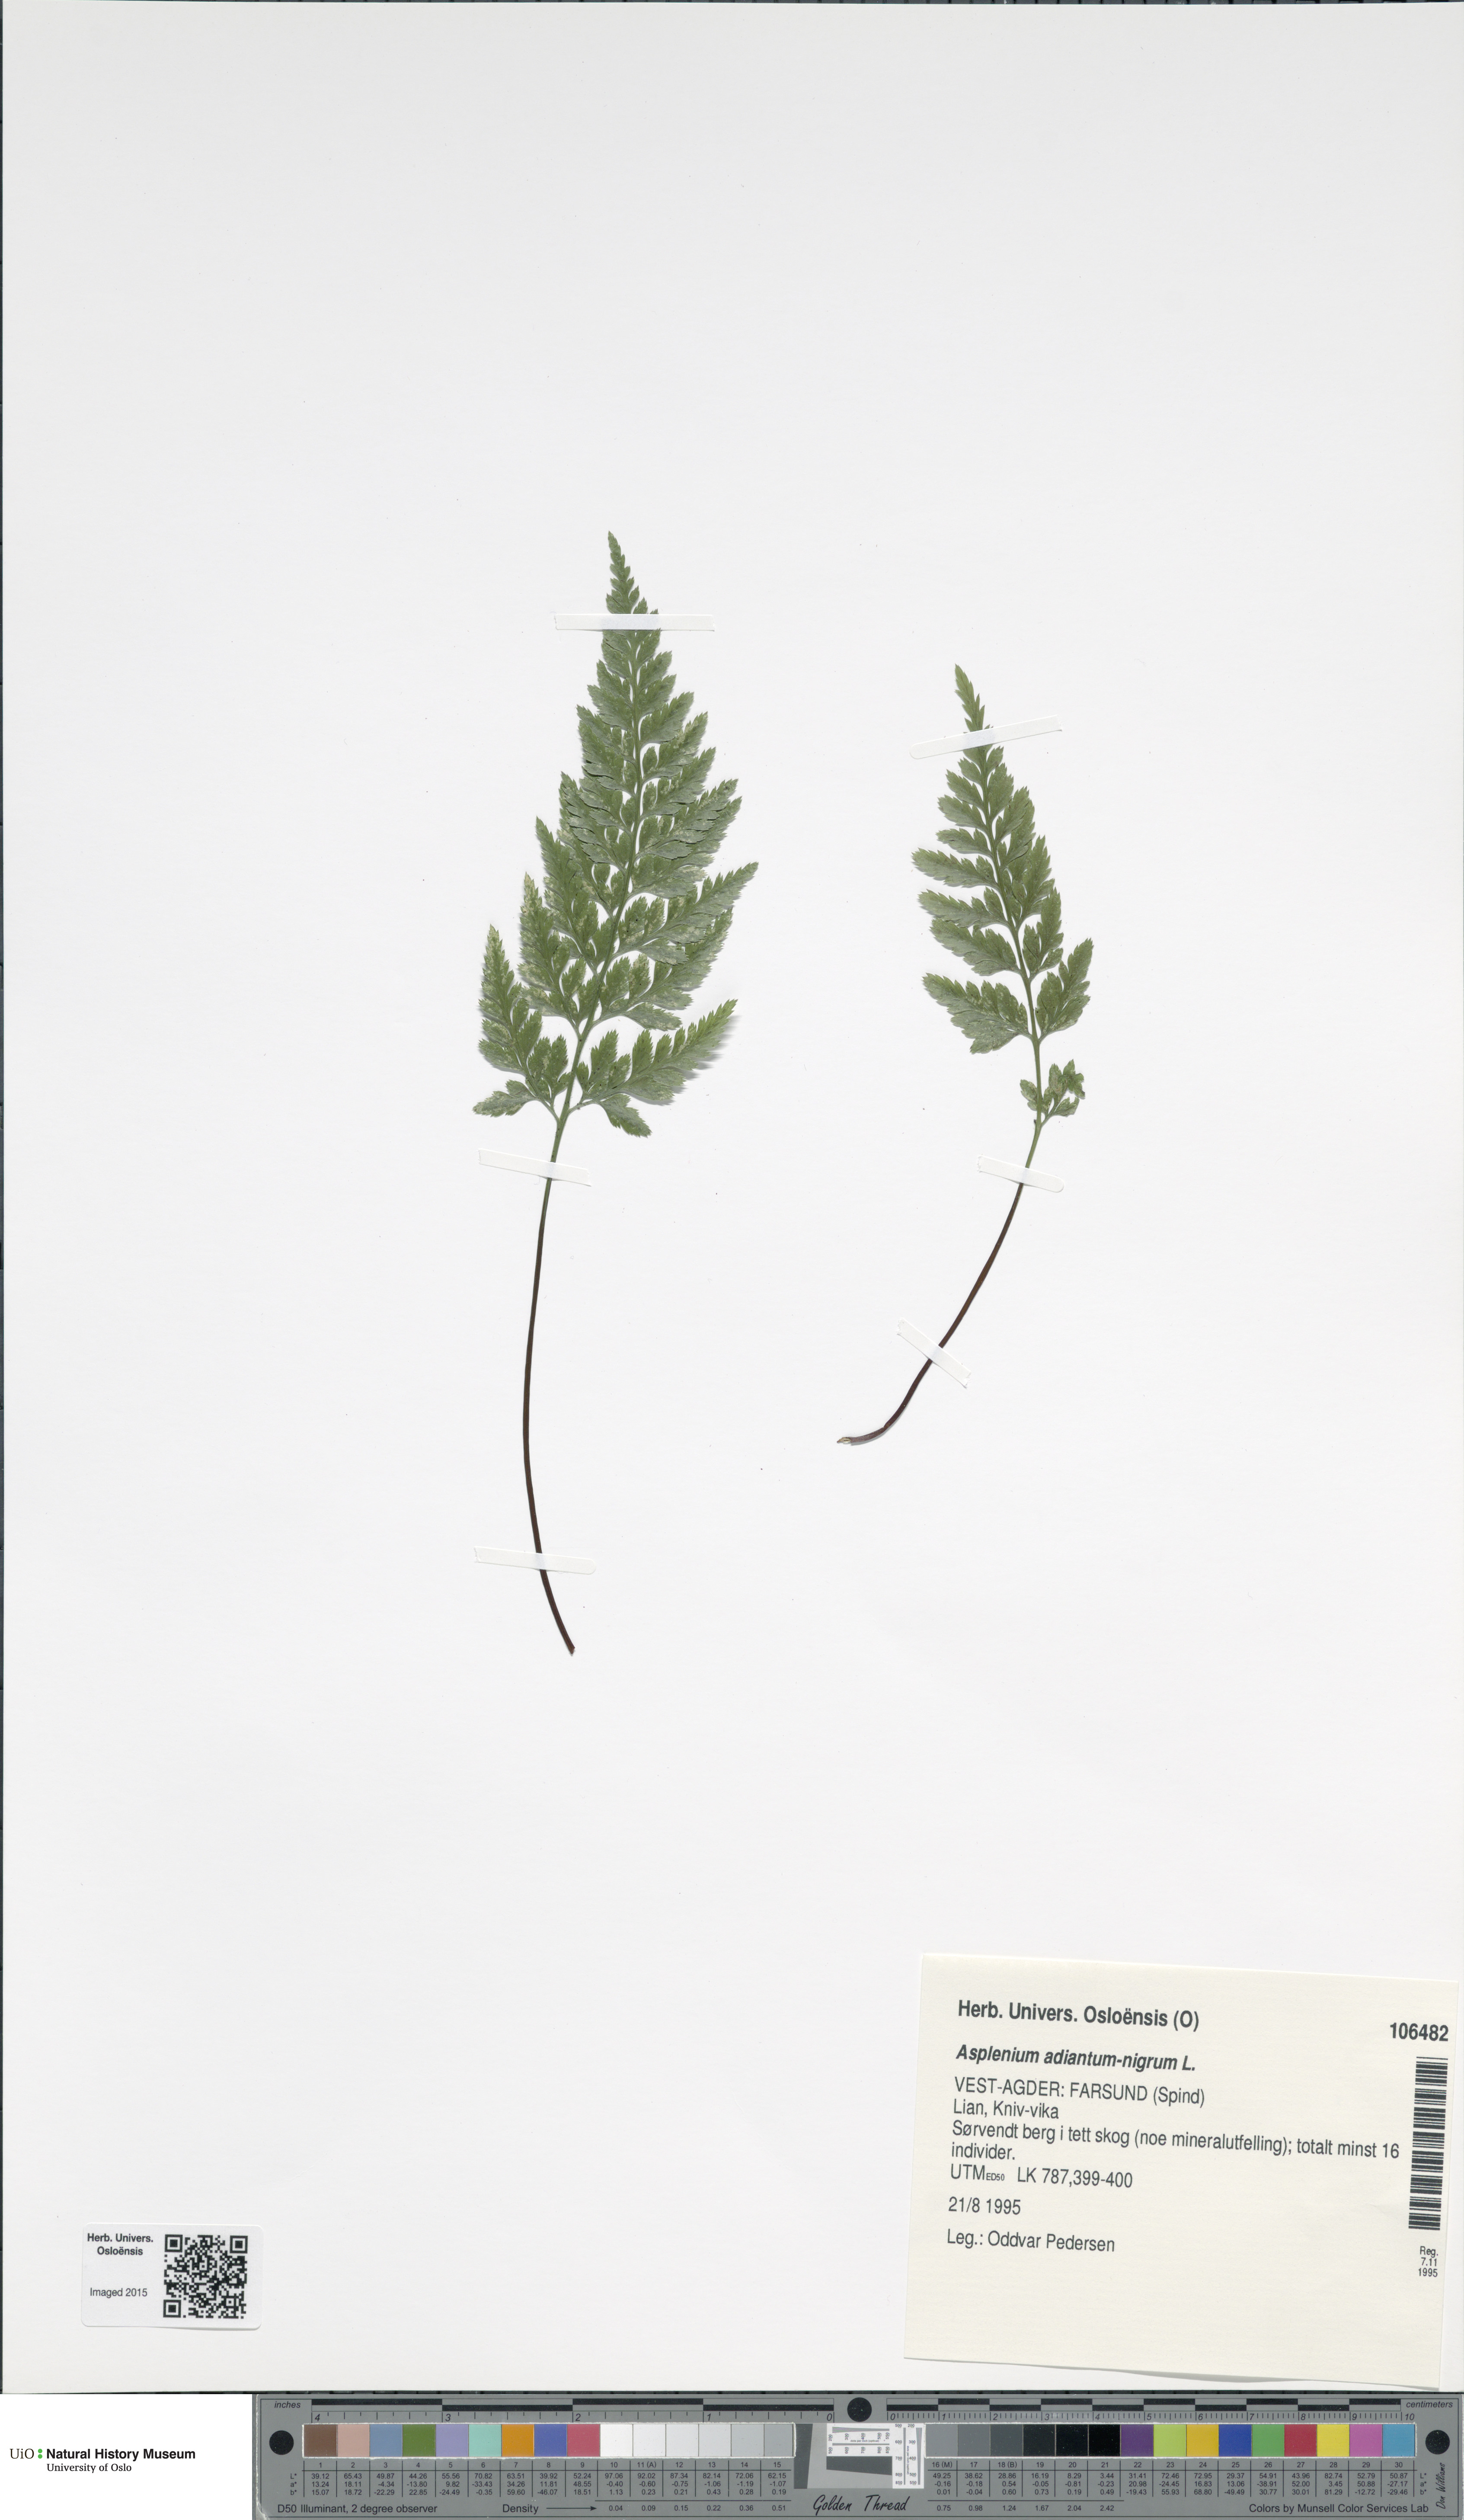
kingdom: Plantae
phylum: Tracheophyta
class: Polypodiopsida
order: Polypodiales
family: Aspleniaceae
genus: Asplenium
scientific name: Asplenium adiantum-nigrum
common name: Black spleenwort
